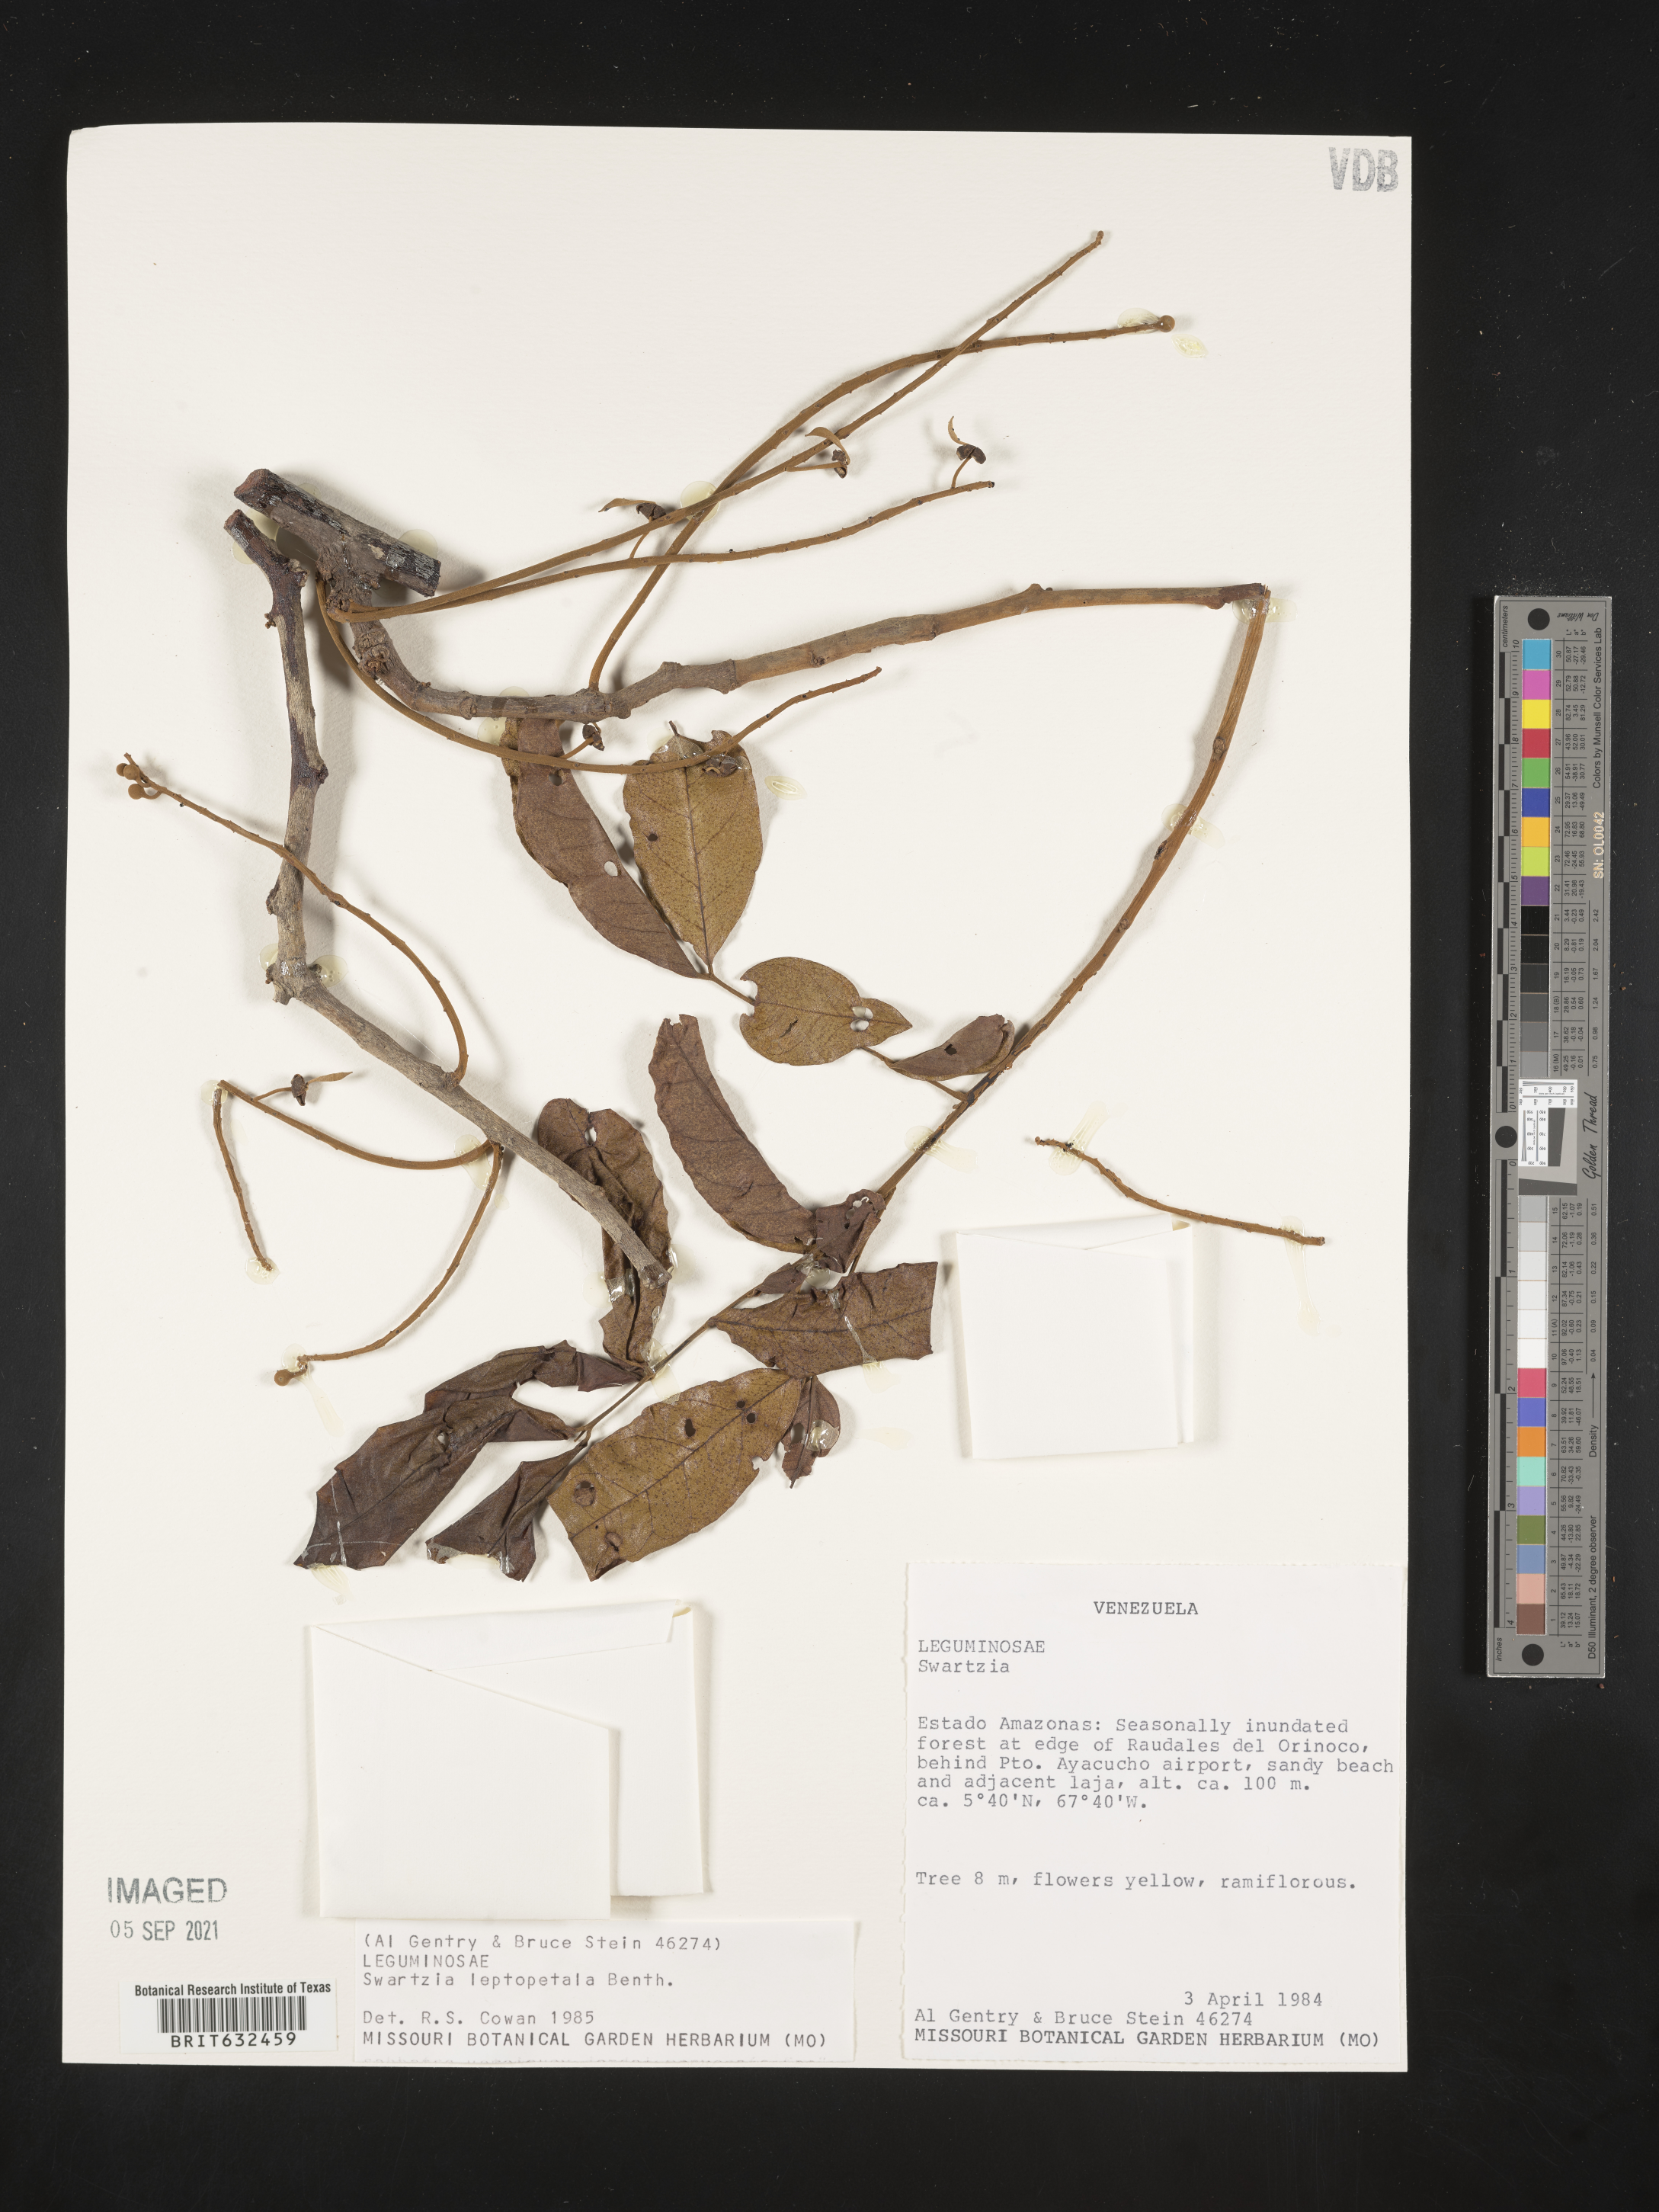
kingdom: Plantae
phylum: Tracheophyta
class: Magnoliopsida
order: Fabales
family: Fabaceae
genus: Swartzia
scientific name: Swartzia
